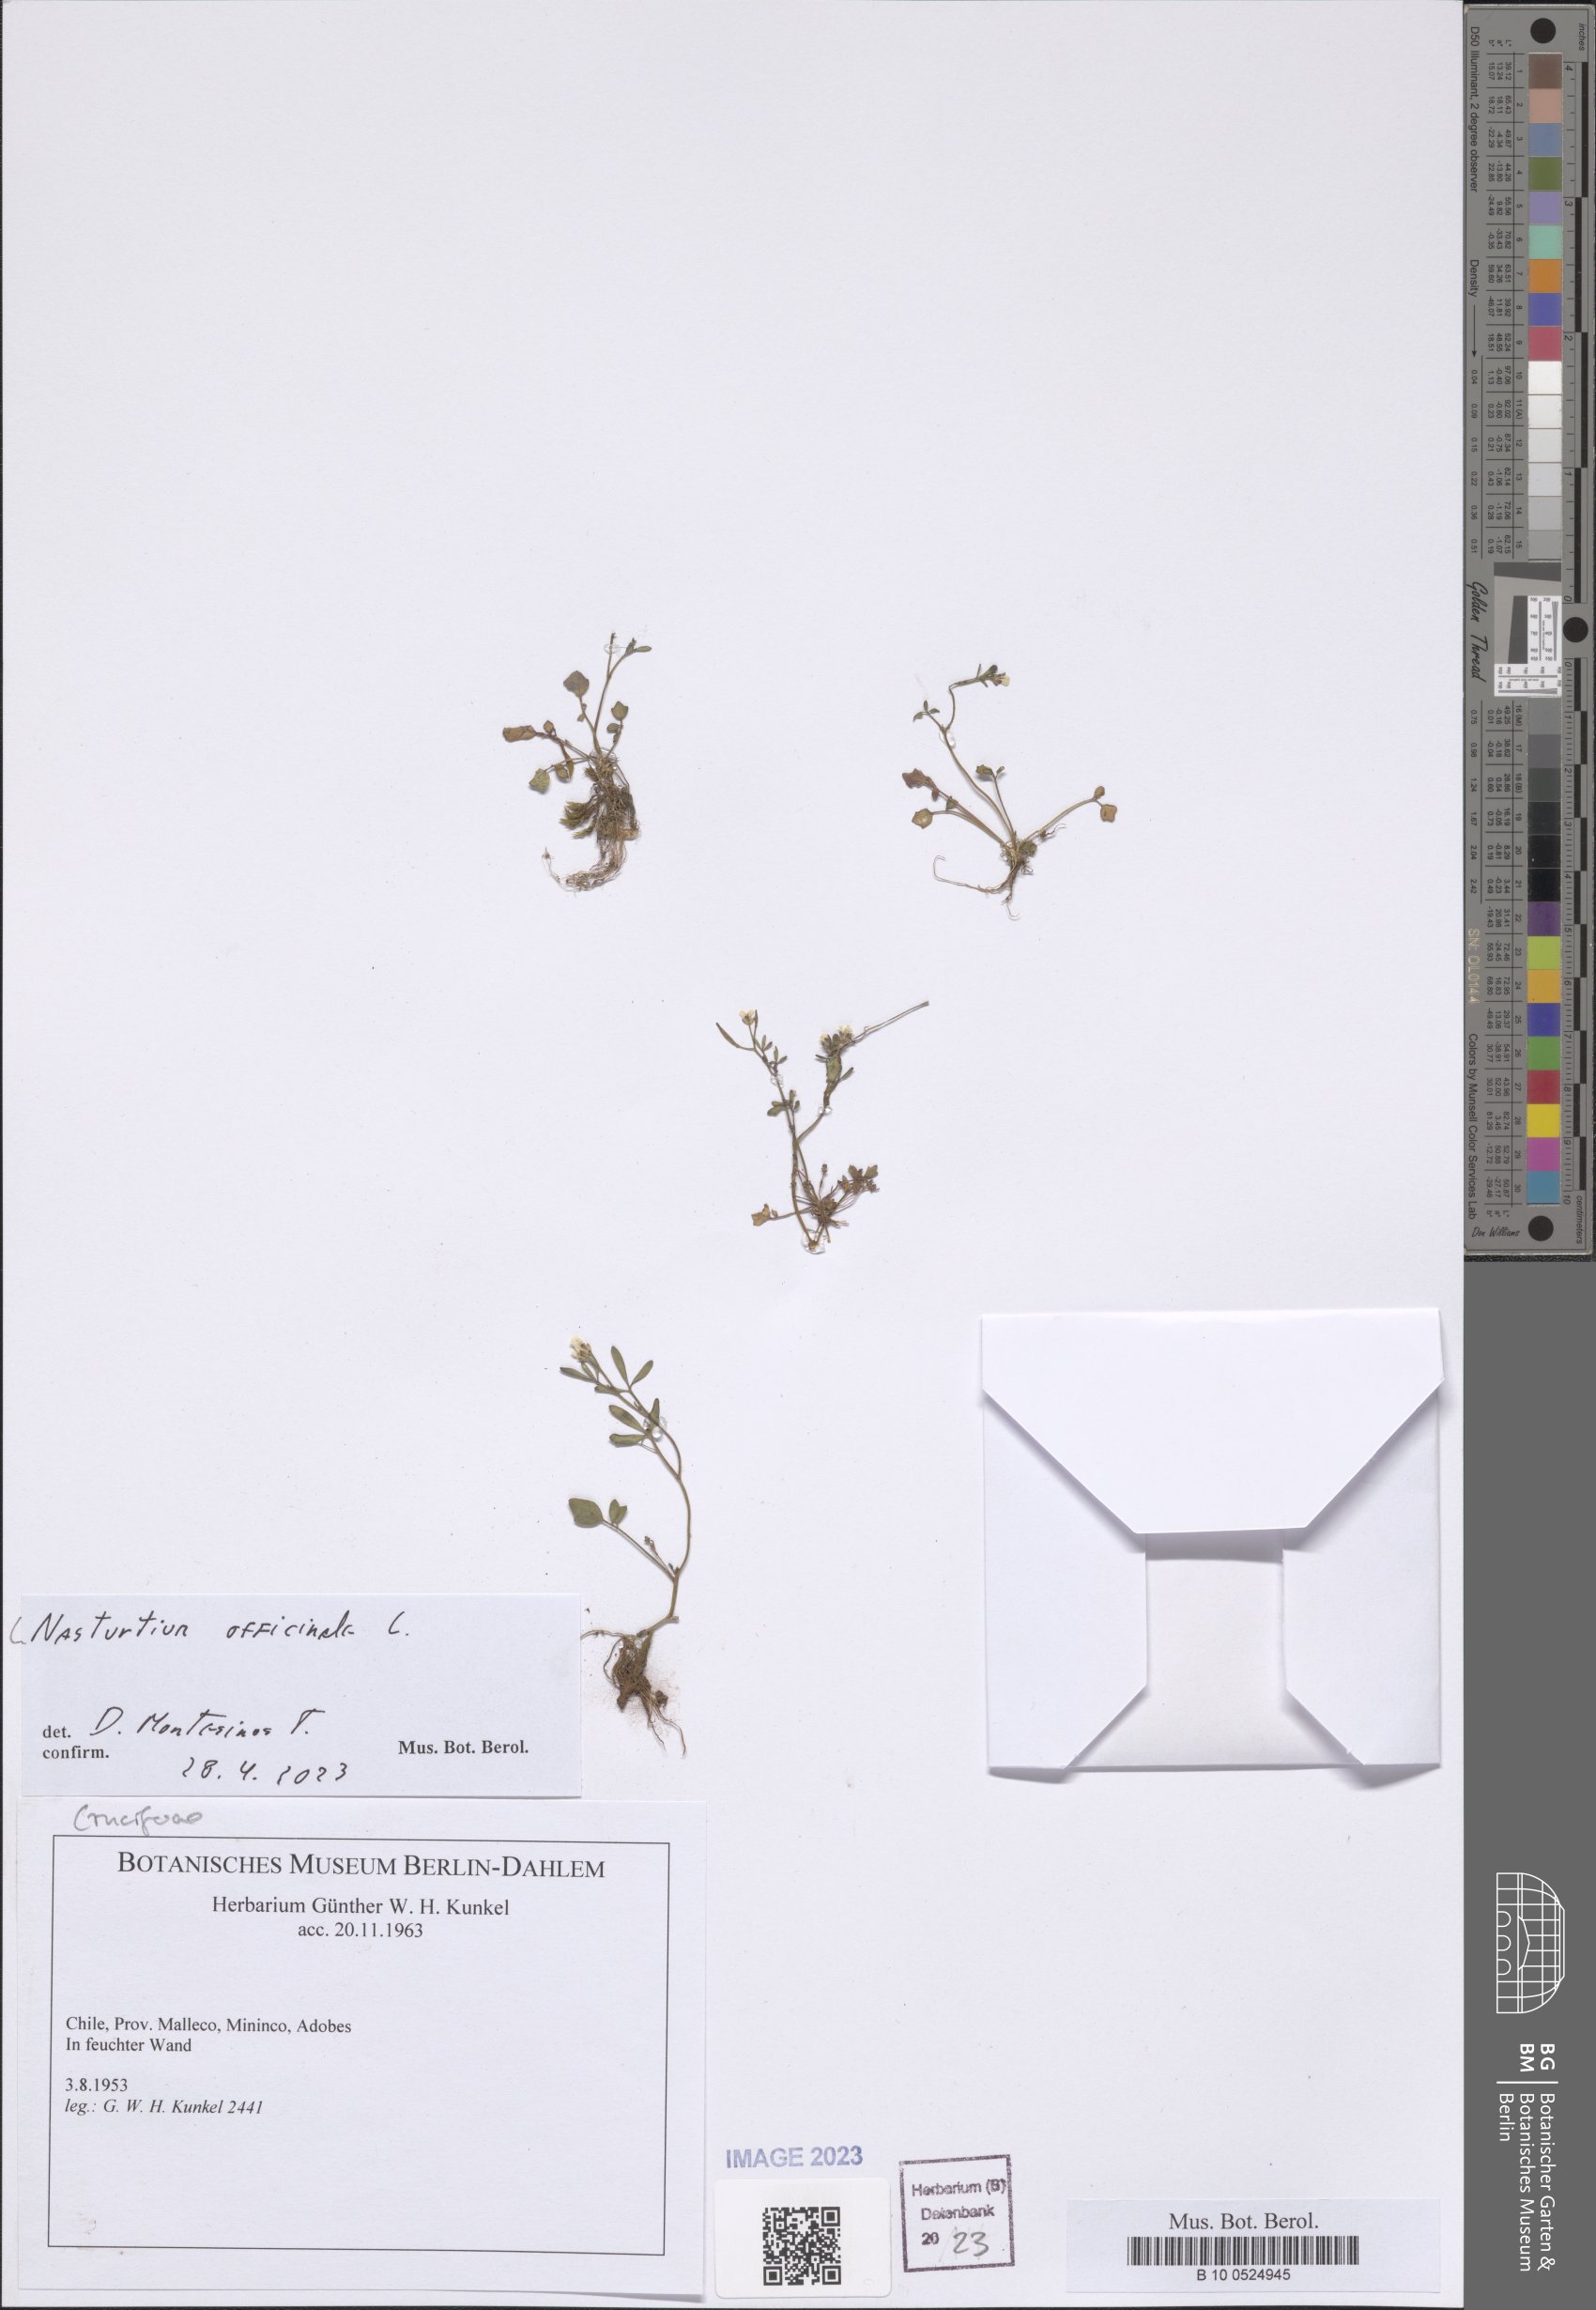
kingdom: Plantae
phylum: Tracheophyta
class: Magnoliopsida
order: Brassicales
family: Brassicaceae
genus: Nasturtium
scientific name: Nasturtium officinale
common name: Watercress
